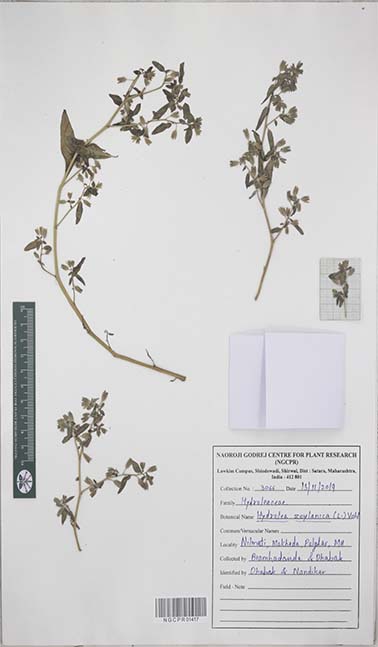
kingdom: Plantae
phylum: Tracheophyta
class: Magnoliopsida
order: Solanales
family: Hydroleaceae
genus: Hydrolea
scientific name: Hydrolea zeylanica
